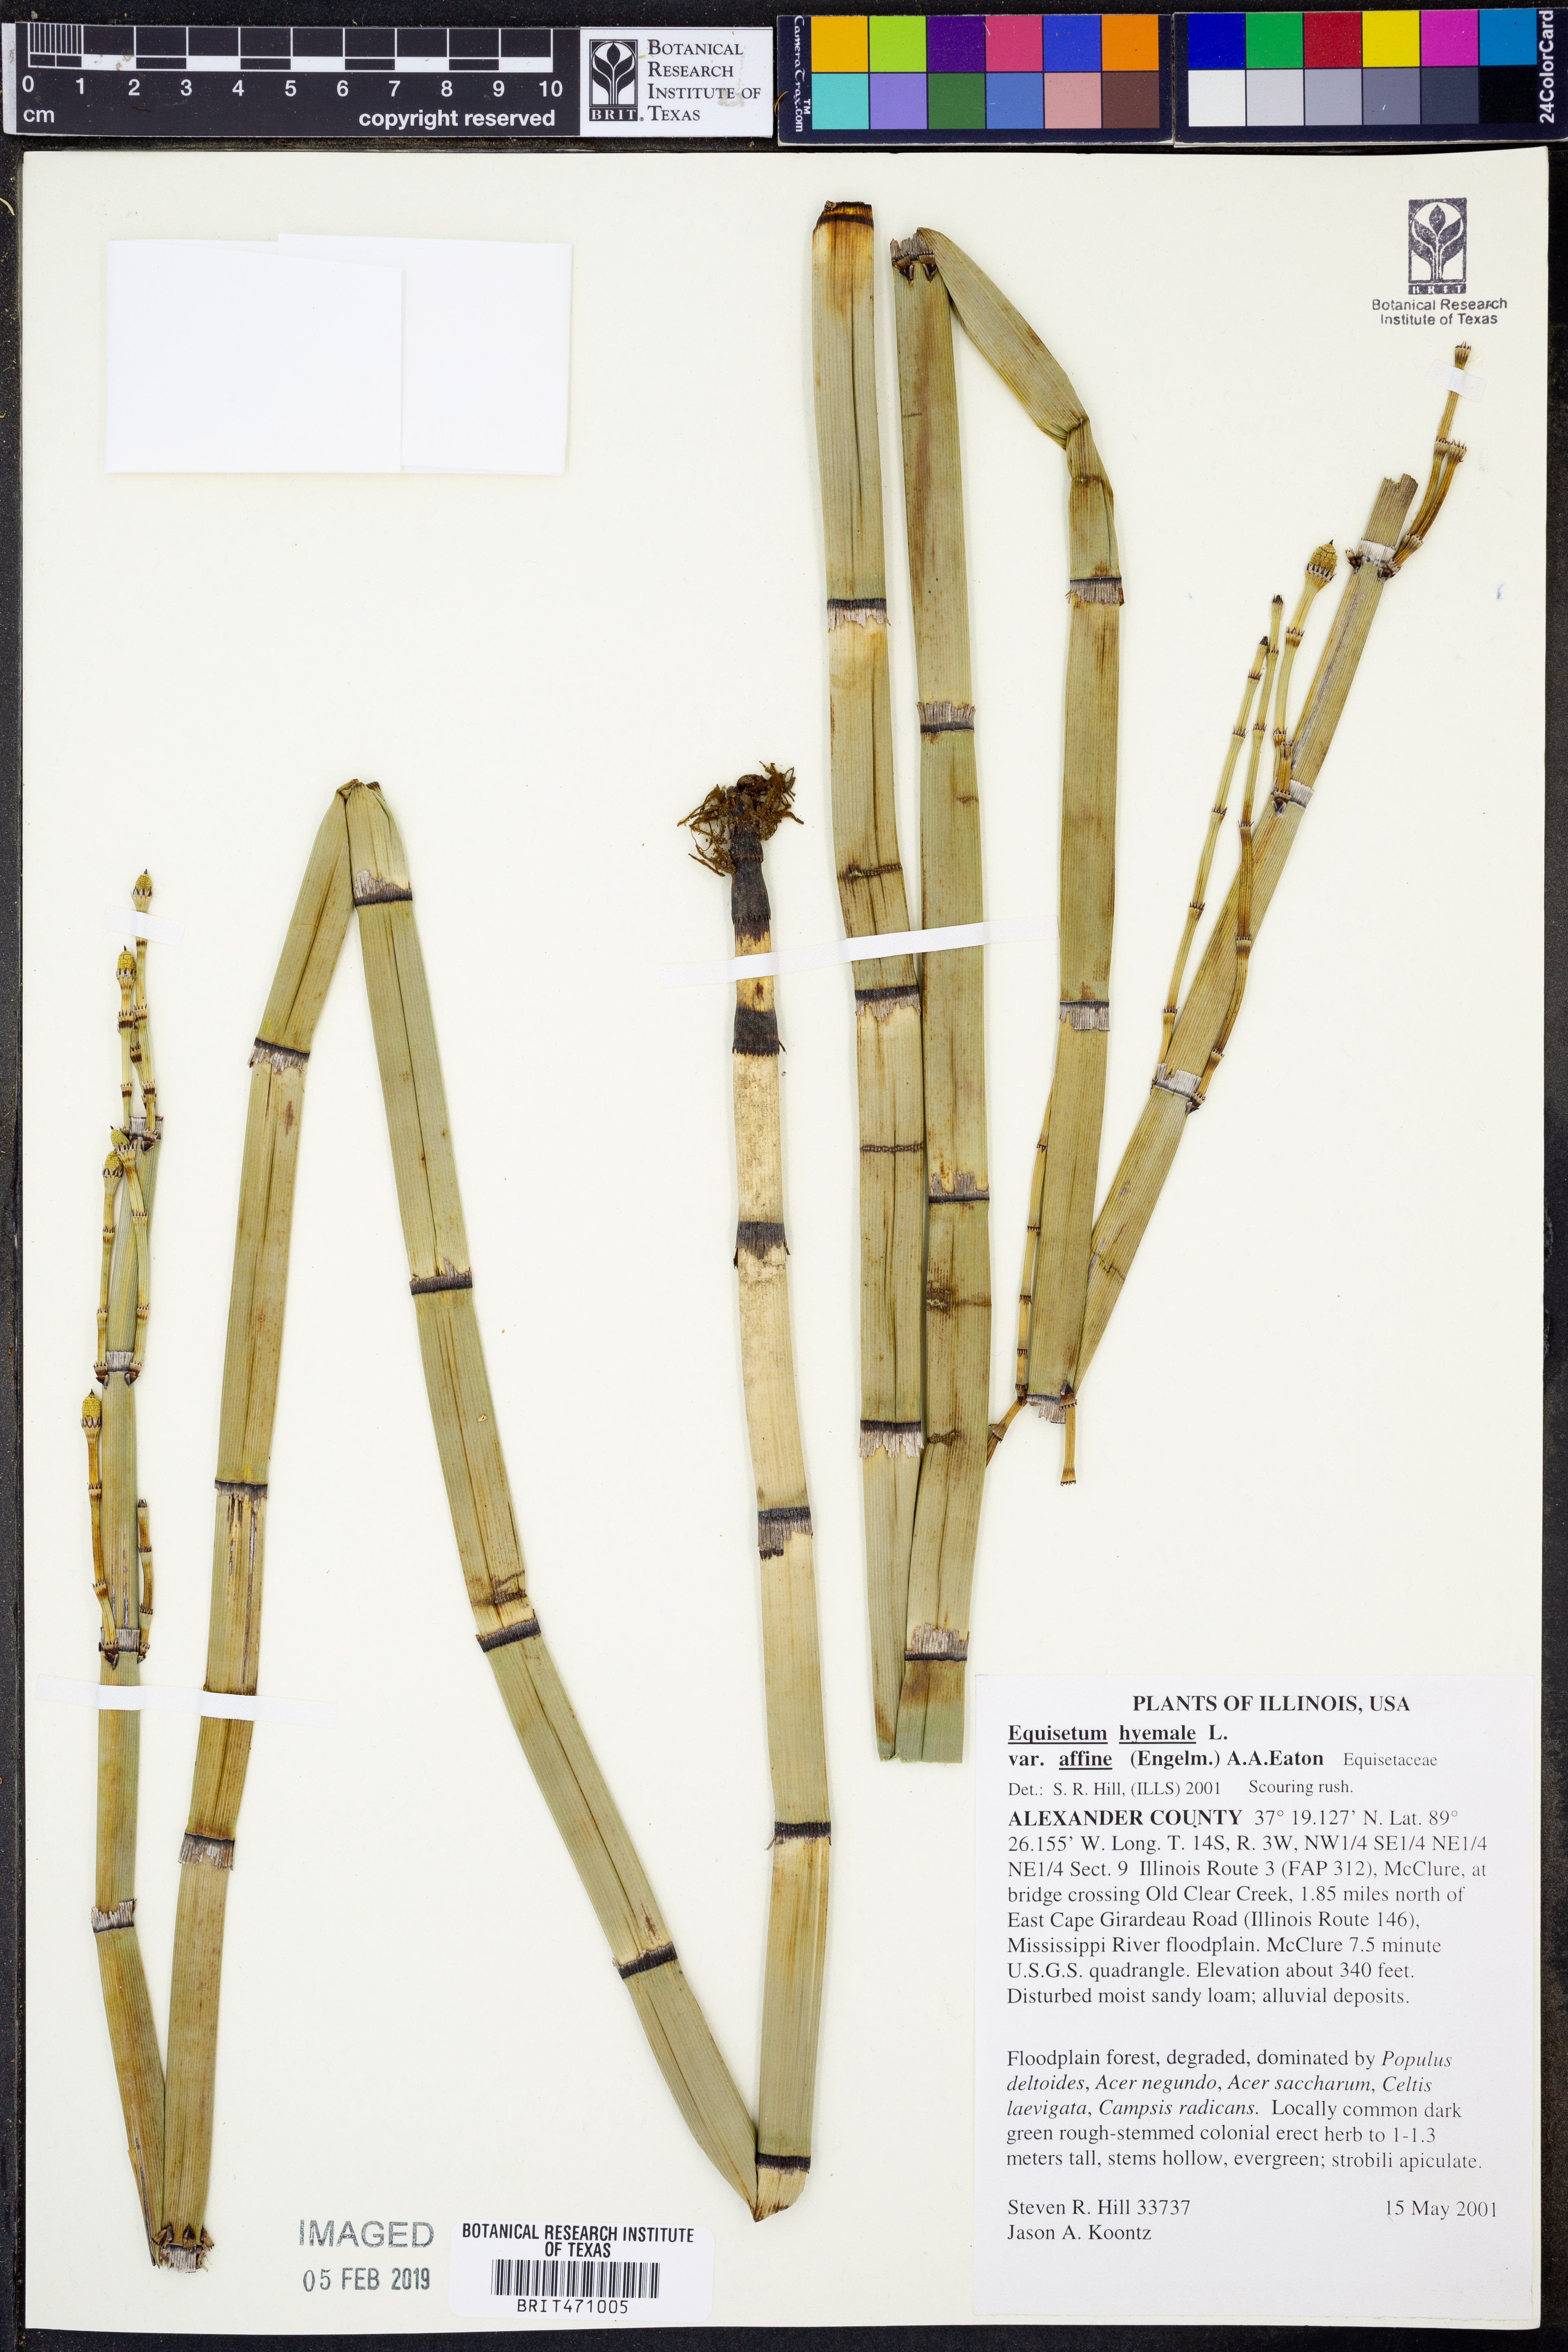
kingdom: Plantae
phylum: Tracheophyta
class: Polypodiopsida
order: Equisetales
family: Equisetaceae
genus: Equisetum
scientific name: Equisetum praealtum
